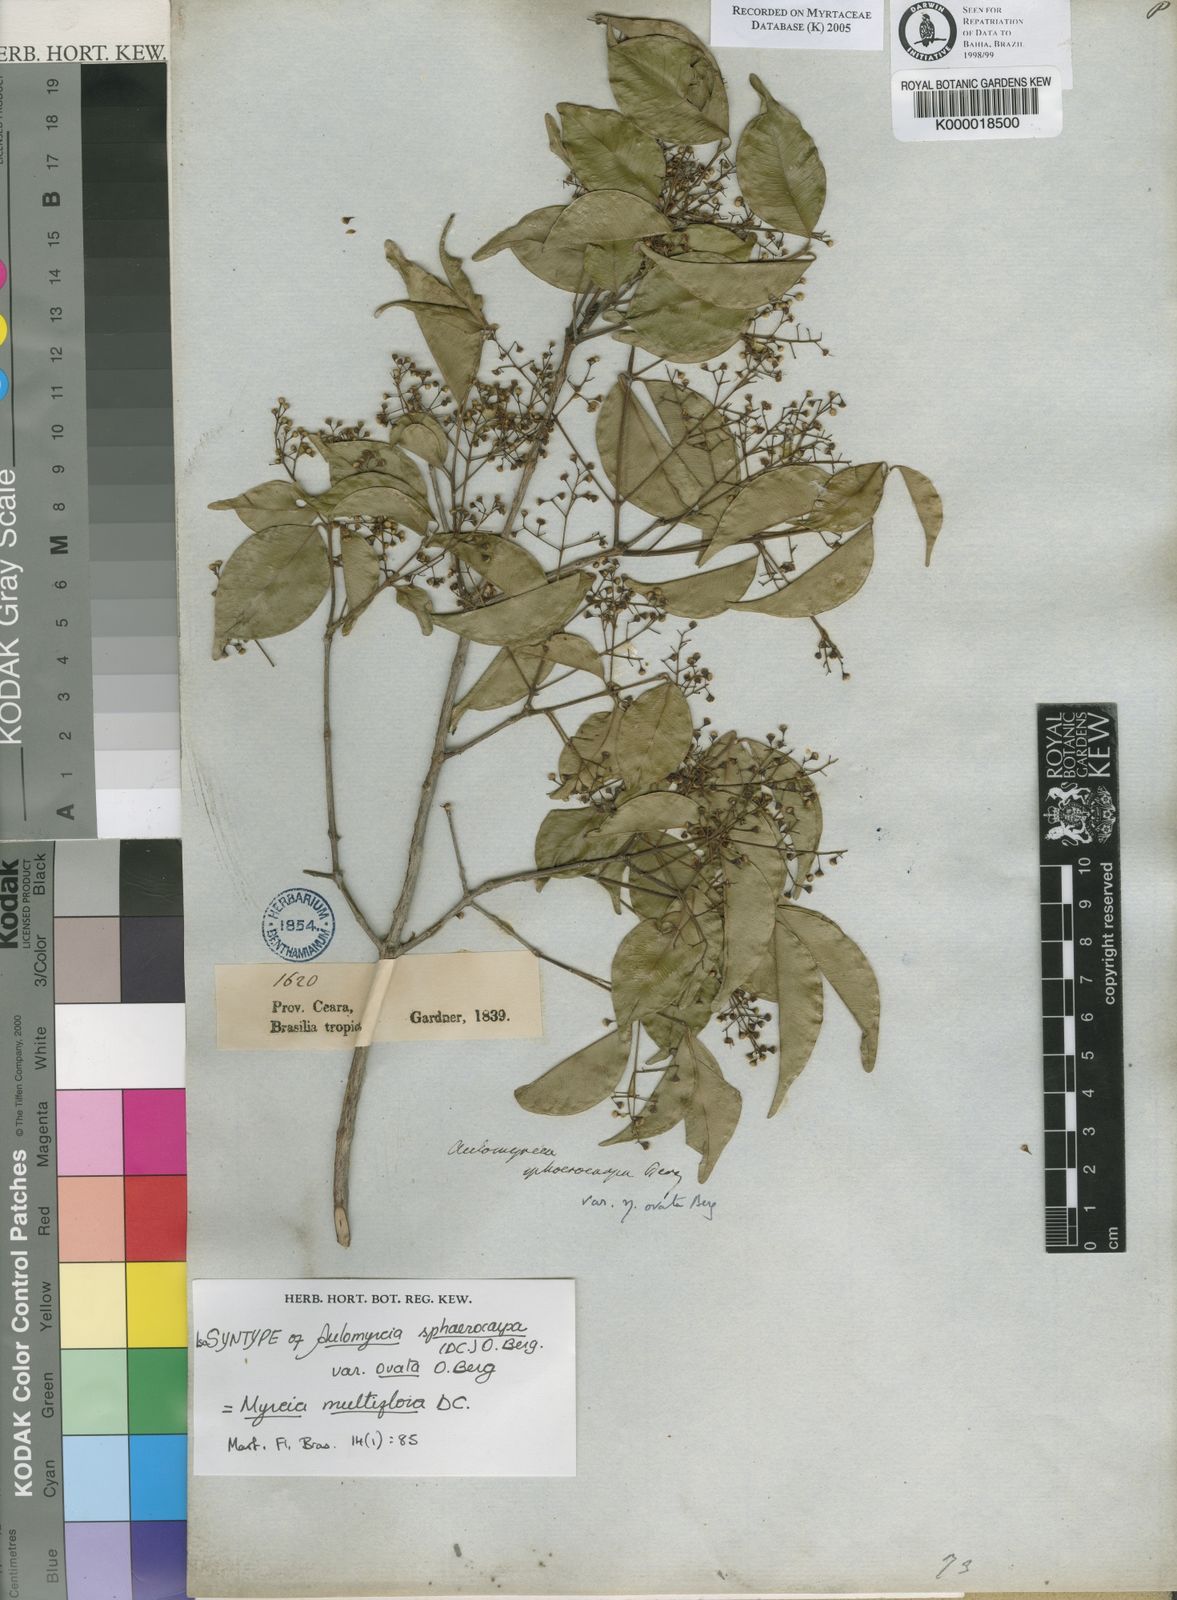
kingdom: Plantae
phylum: Tracheophyta
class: Magnoliopsida
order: Myrtales
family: Myrtaceae
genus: Myrcia
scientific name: Myrcia multiflora
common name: Pedra hume
